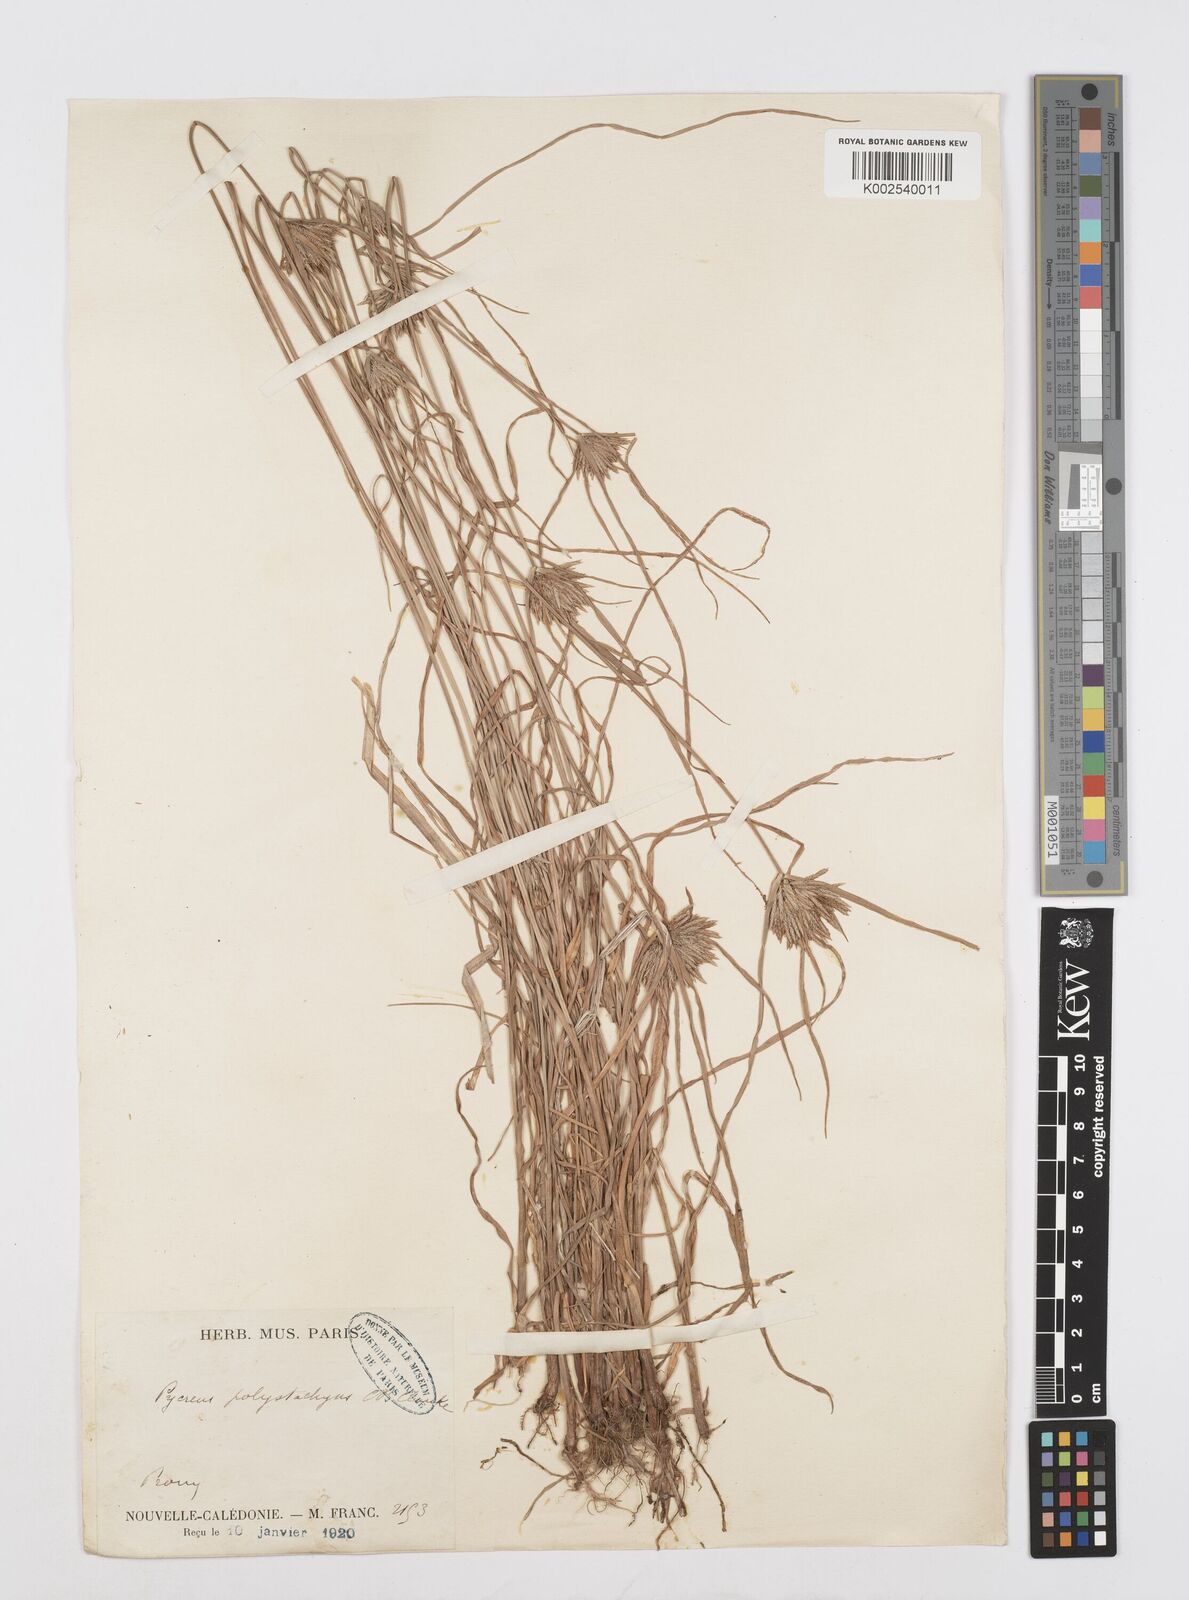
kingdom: Plantae
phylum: Tracheophyta
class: Liliopsida
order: Poales
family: Cyperaceae
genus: Cyperus
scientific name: Cyperus polystachyos
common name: Bunchy flat sedge
